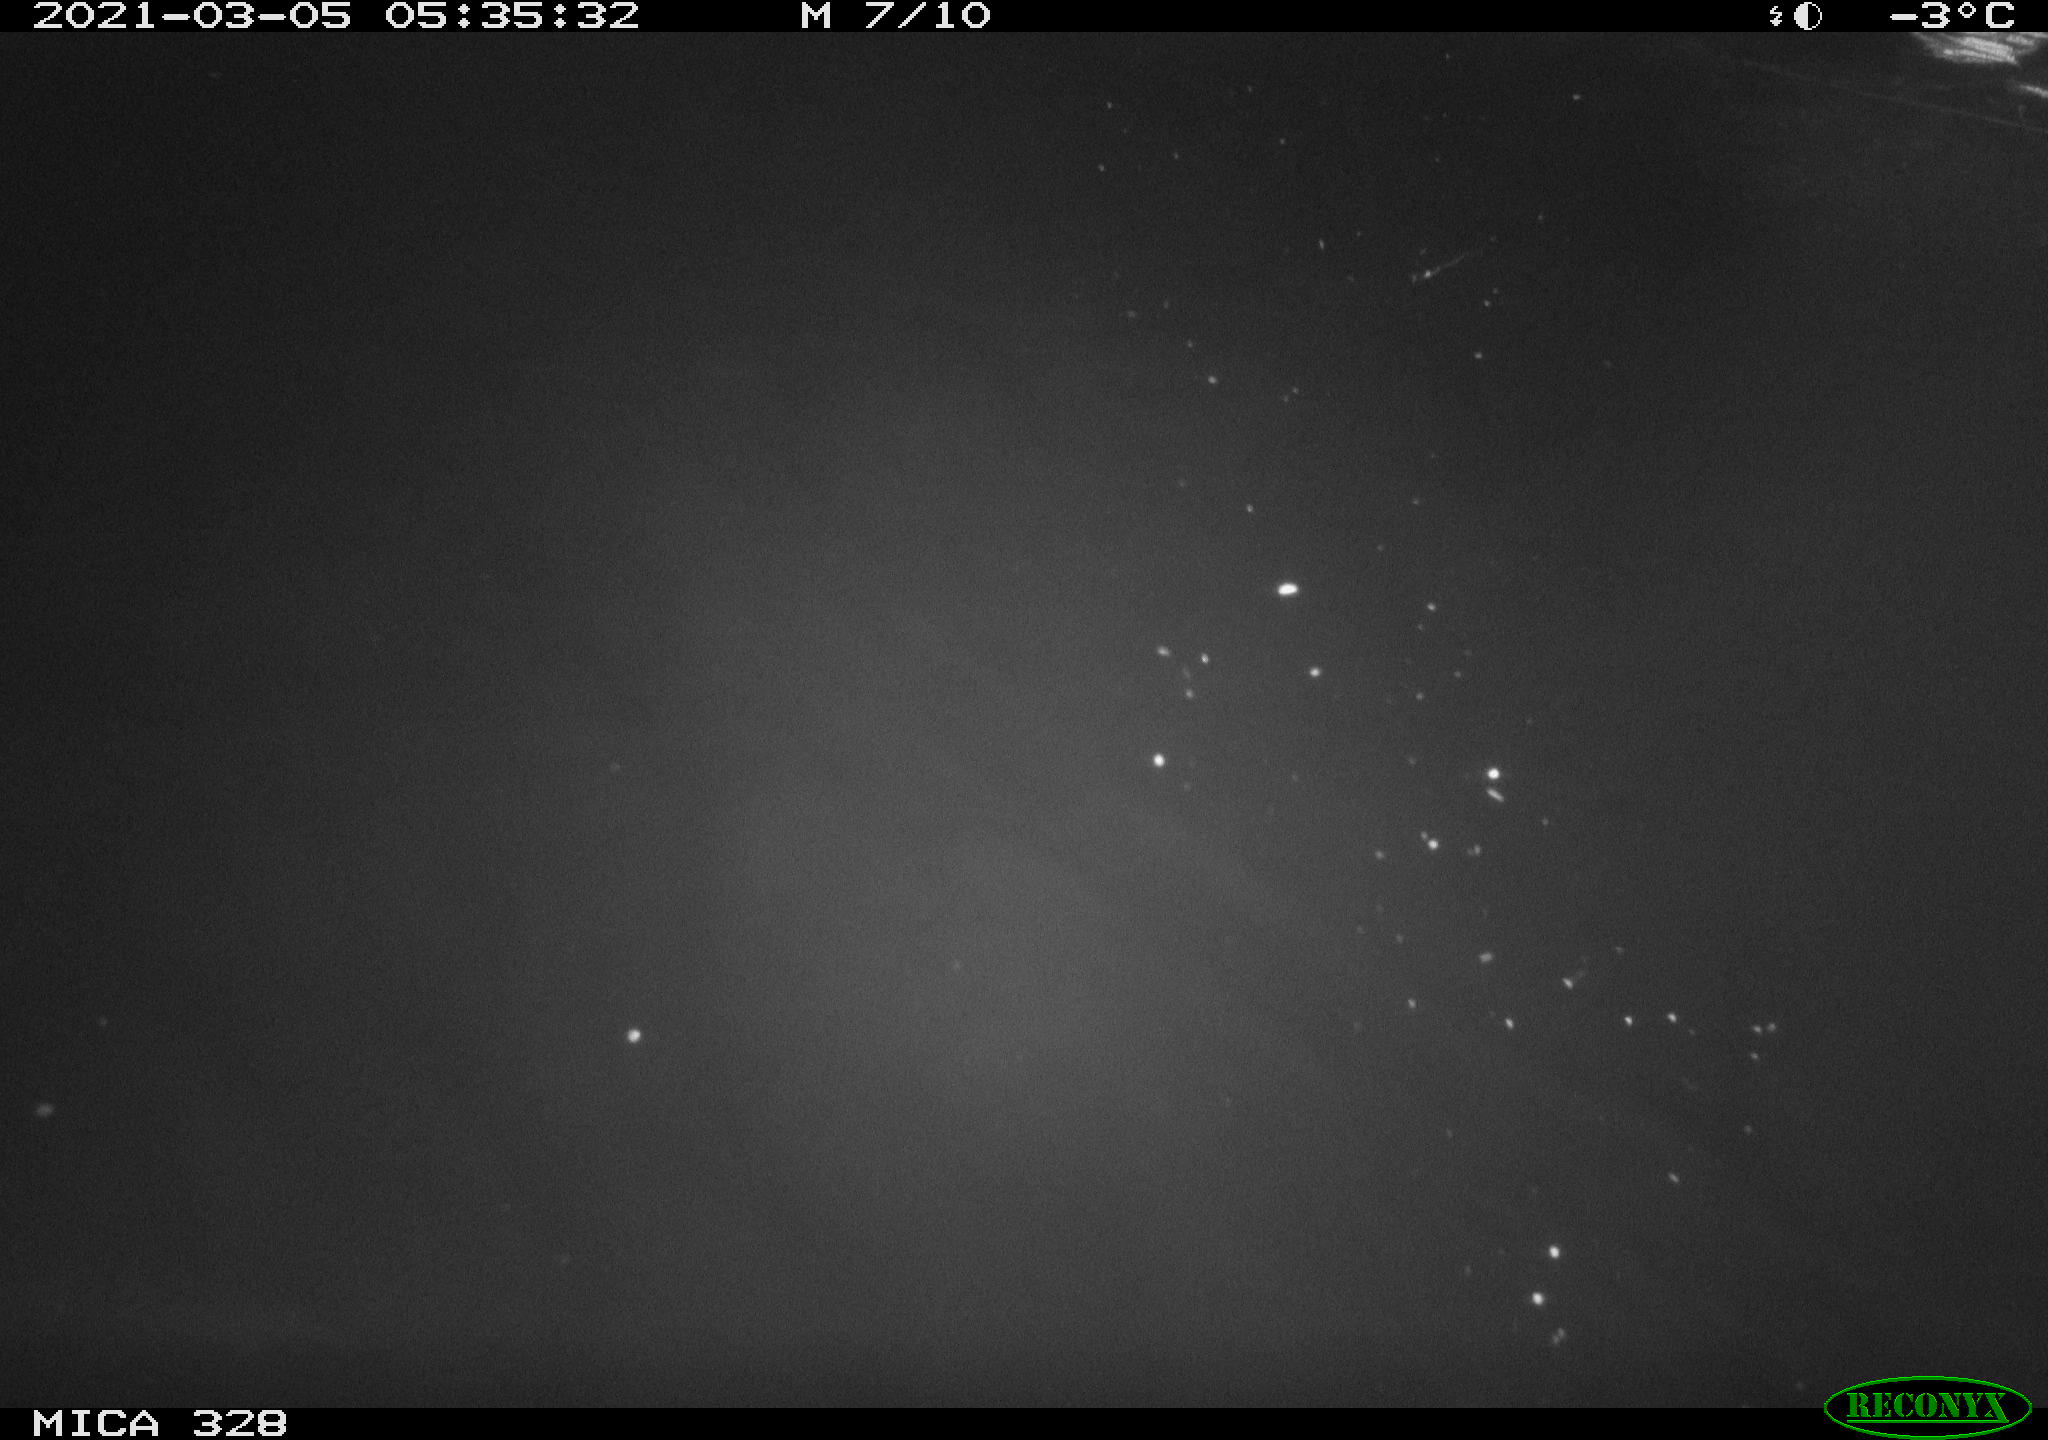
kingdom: Animalia
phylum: Chordata
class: Aves
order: Anseriformes
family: Anatidae
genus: Anas
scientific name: Anas platyrhynchos
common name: Mallard
